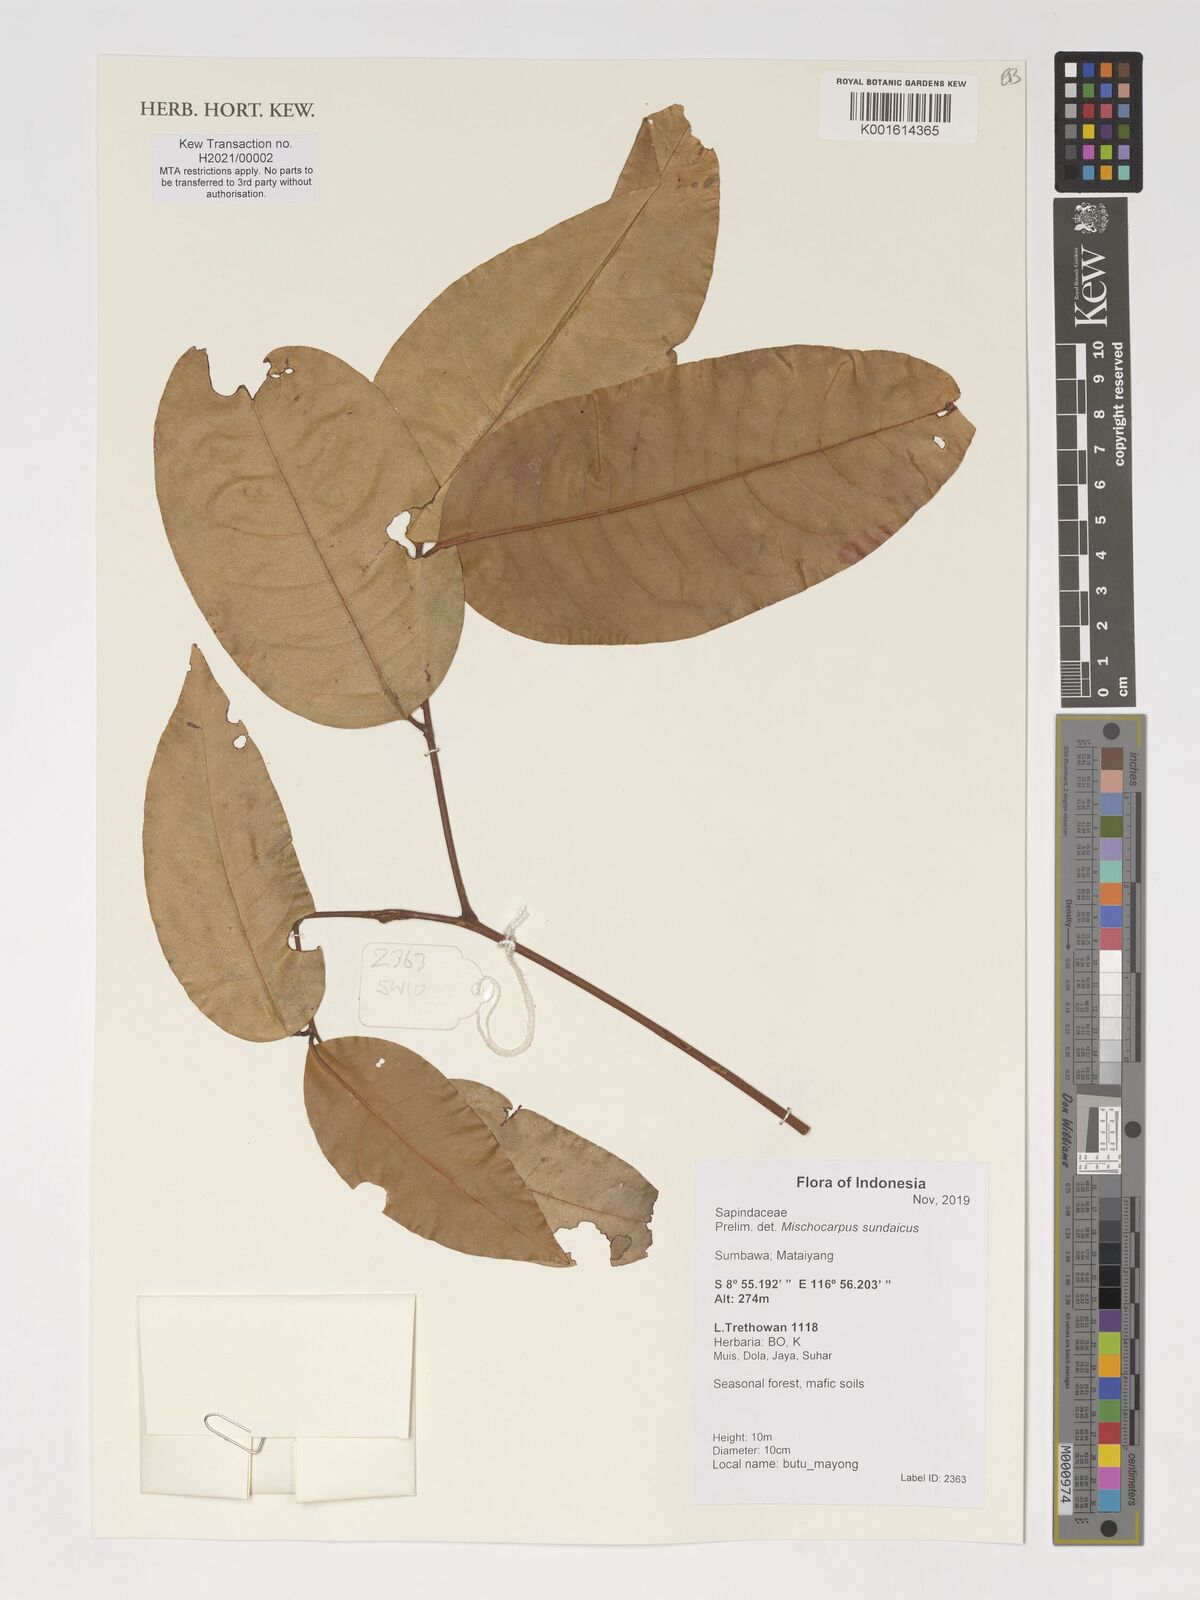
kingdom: Plantae
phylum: Tracheophyta
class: Magnoliopsida
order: Sapindales
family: Sapindaceae
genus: Mischocarpus
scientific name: Mischocarpus sundaicus
